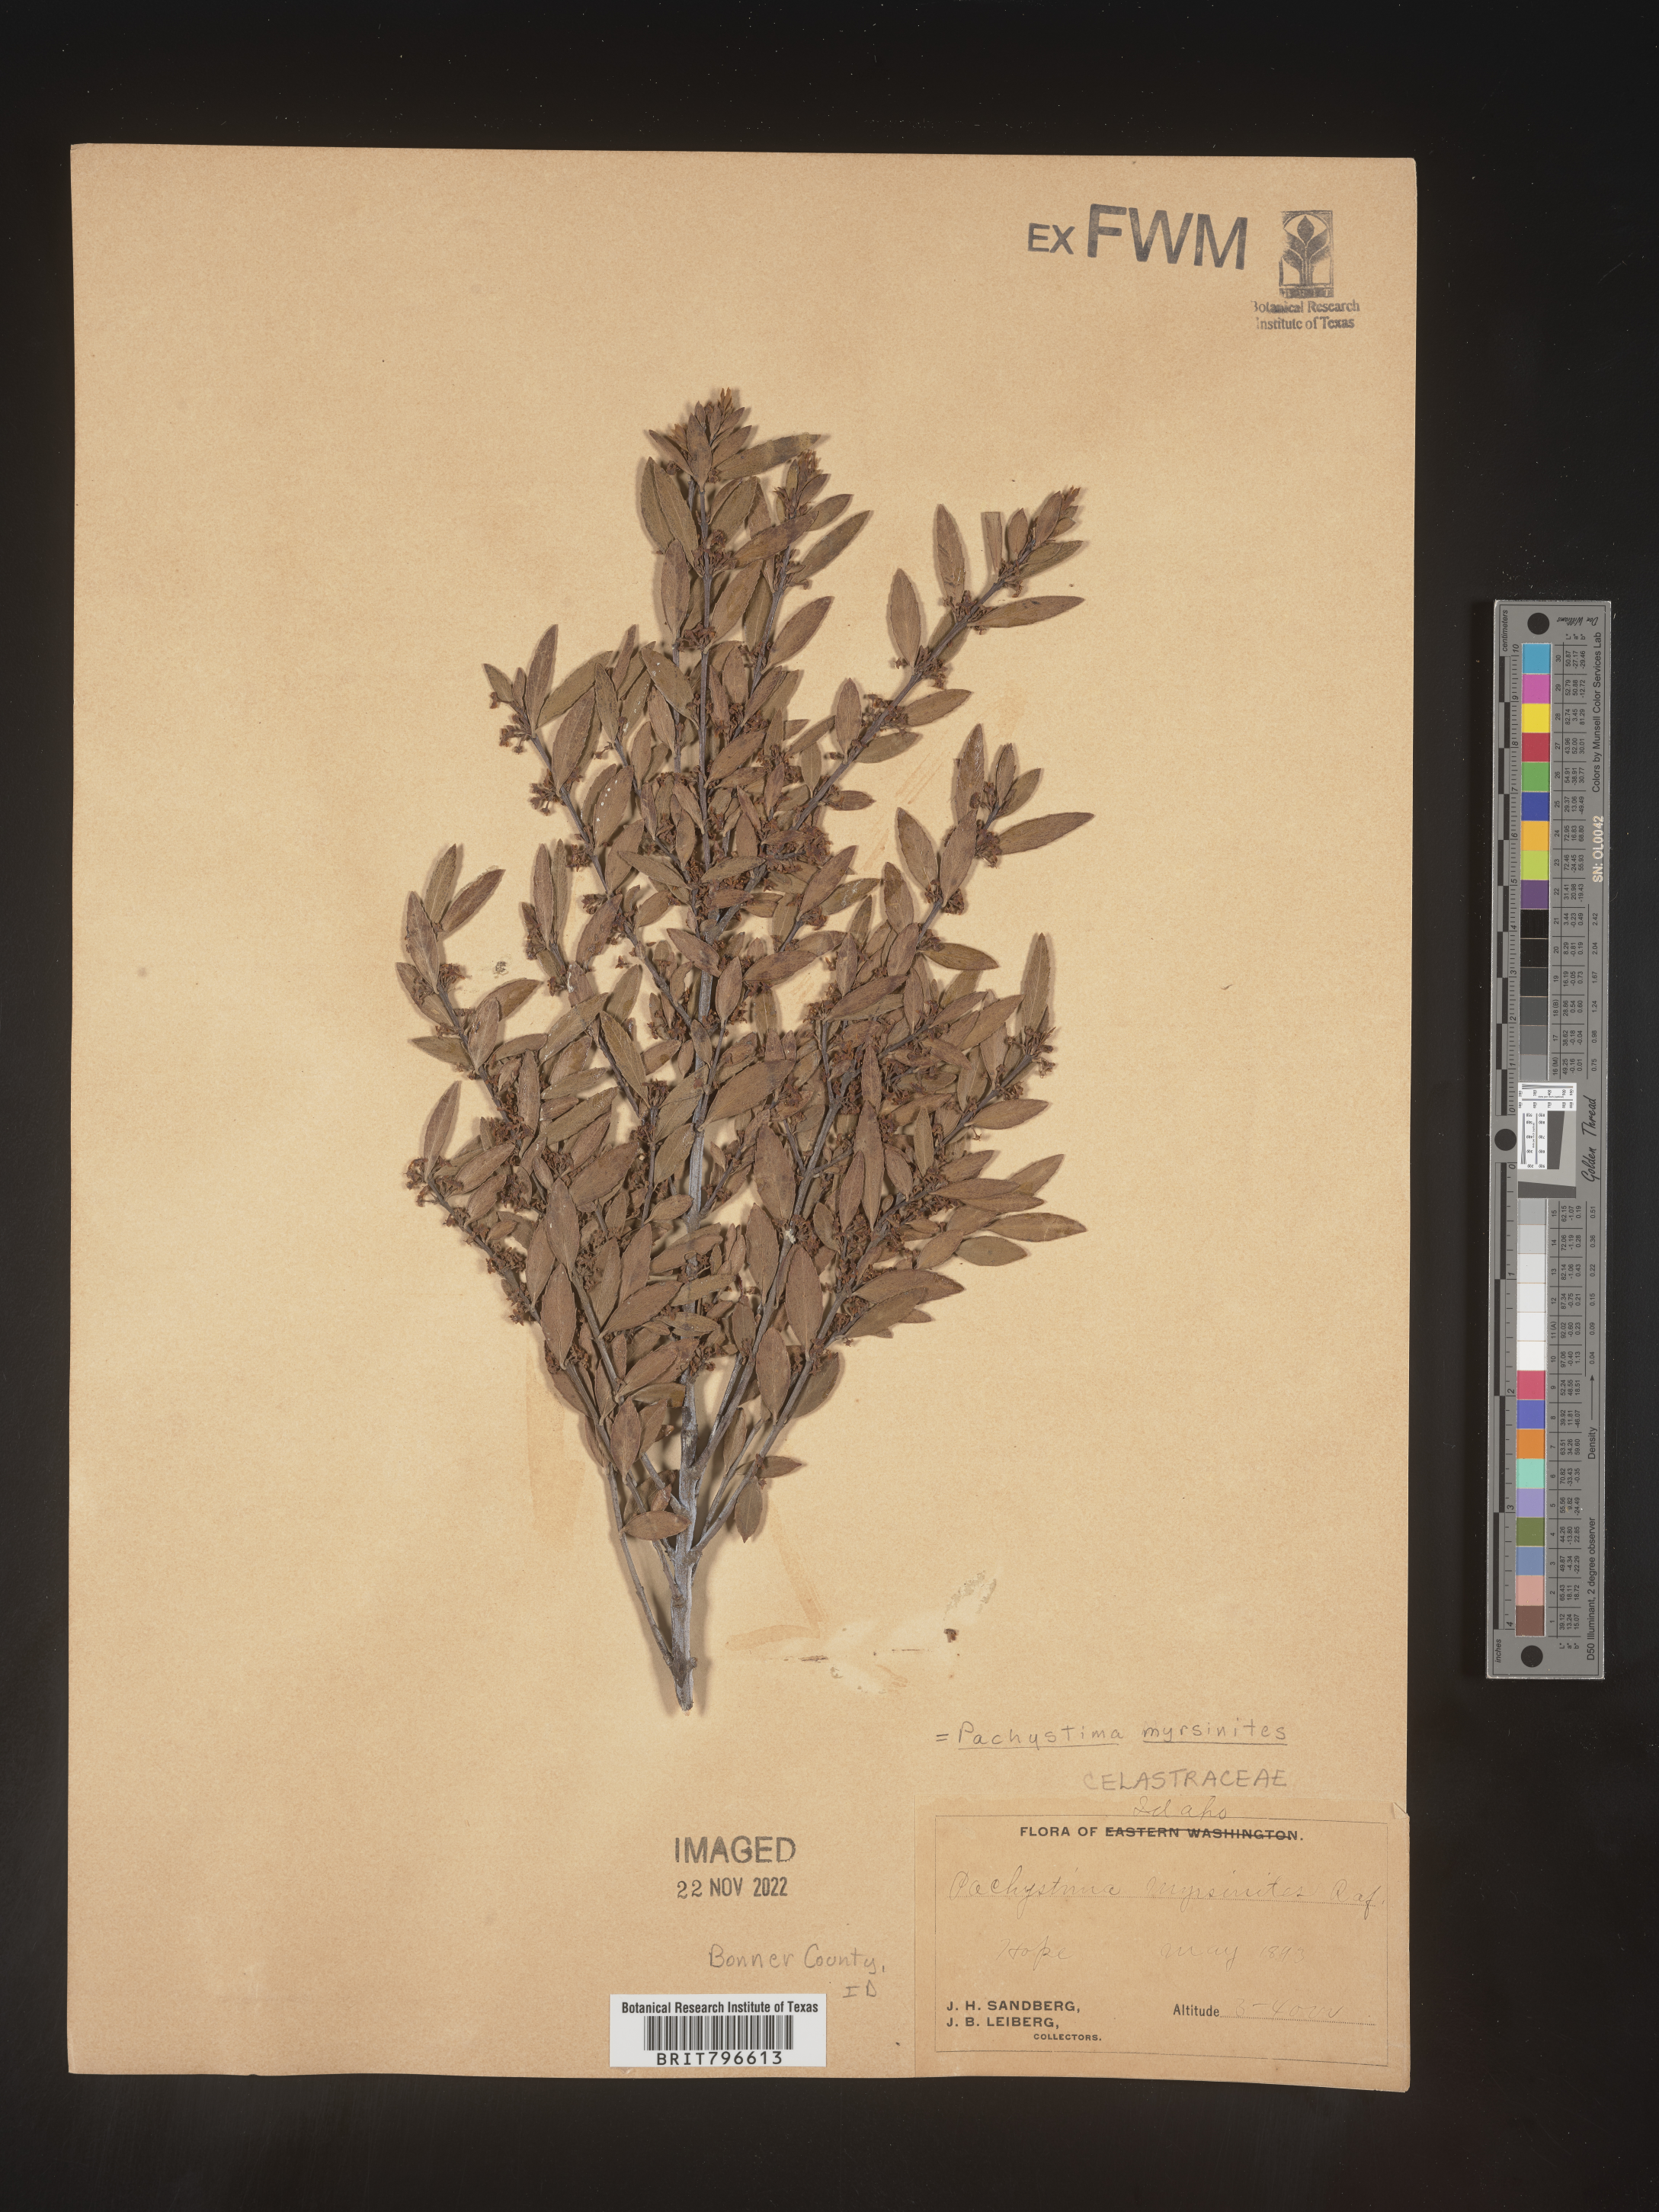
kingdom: Plantae
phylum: Tracheophyta
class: Magnoliopsida
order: Celastrales
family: Celastraceae
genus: Paxistima
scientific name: Paxistima myrsinites
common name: Mountain-lover
